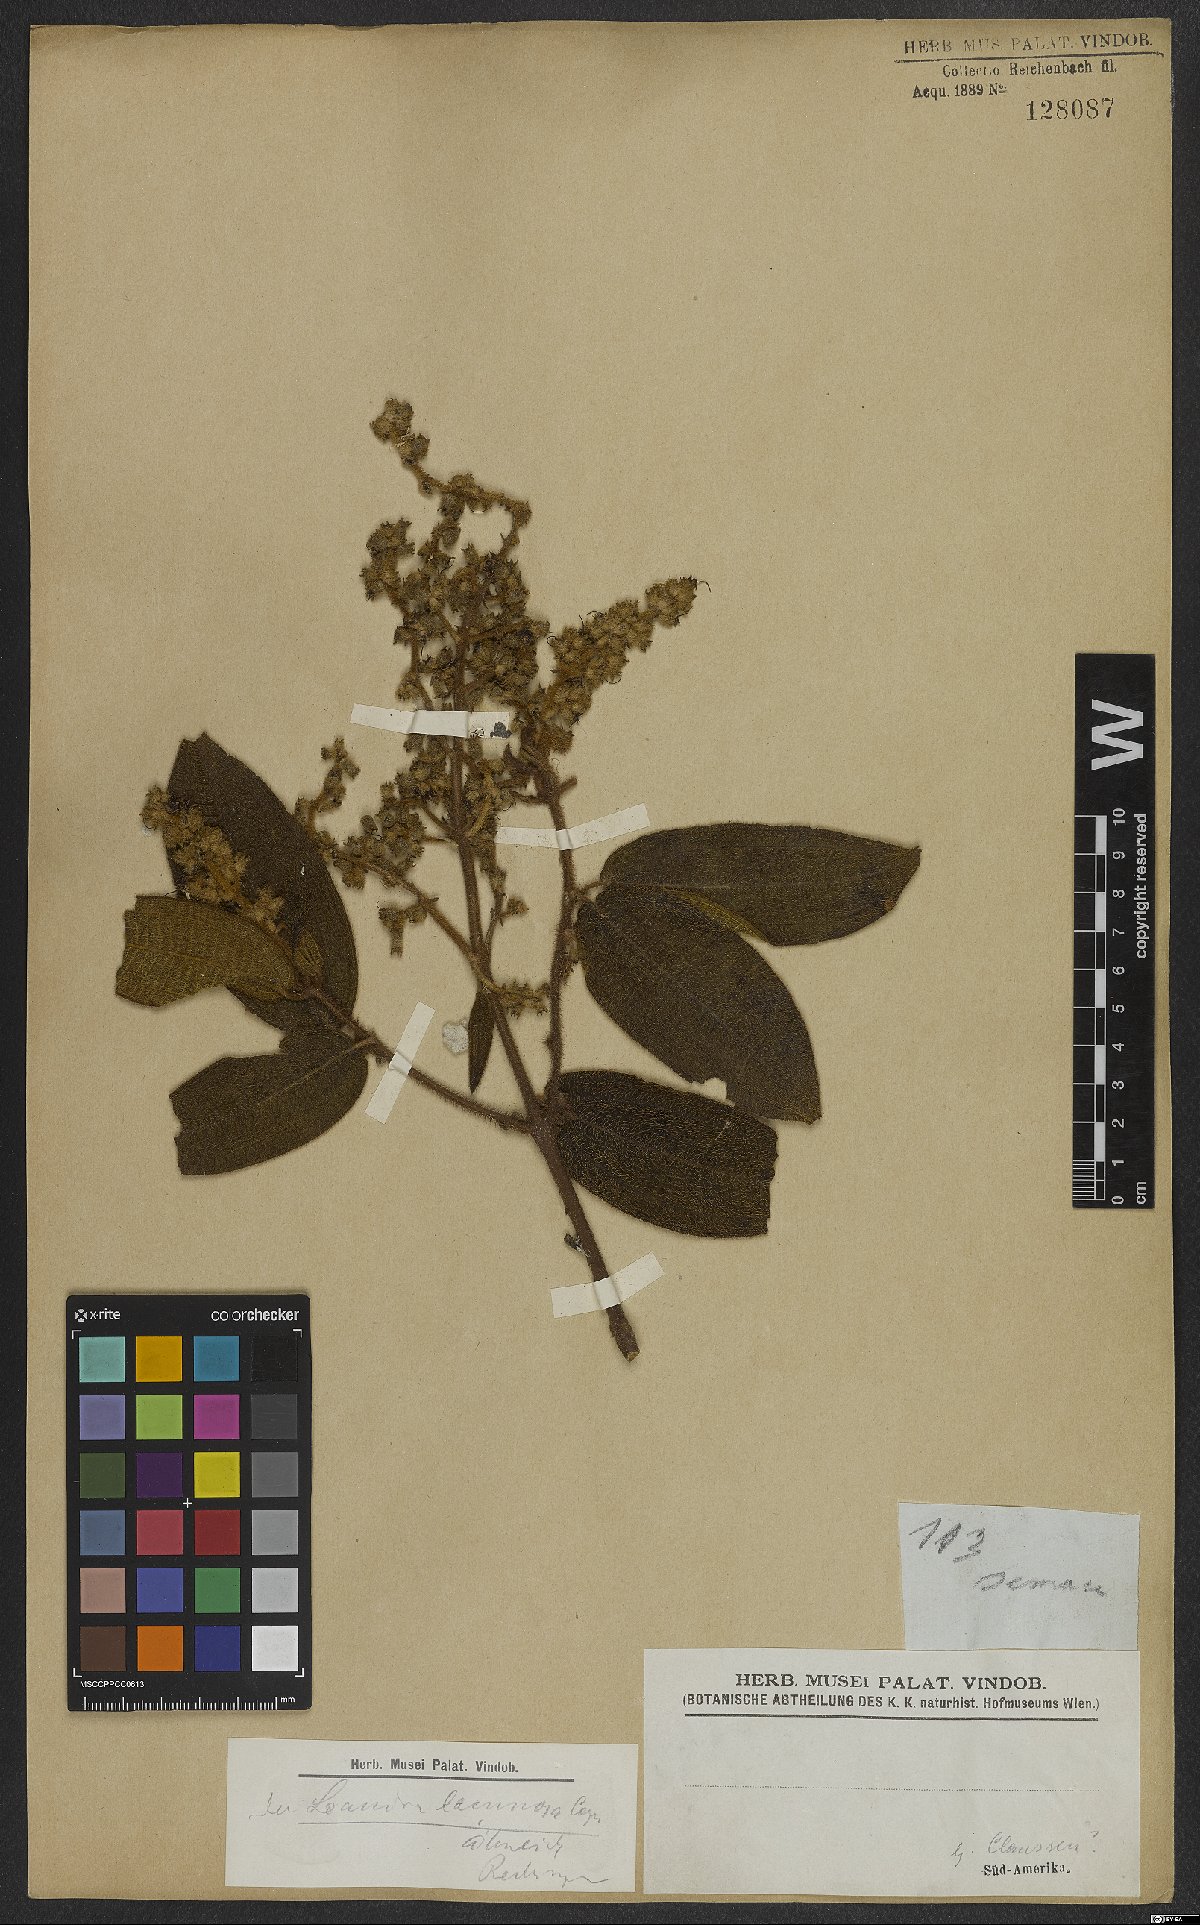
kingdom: Plantae
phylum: Tracheophyta
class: Magnoliopsida
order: Myrtales
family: Melastomataceae
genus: Miconia
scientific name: Miconia lacunosa
